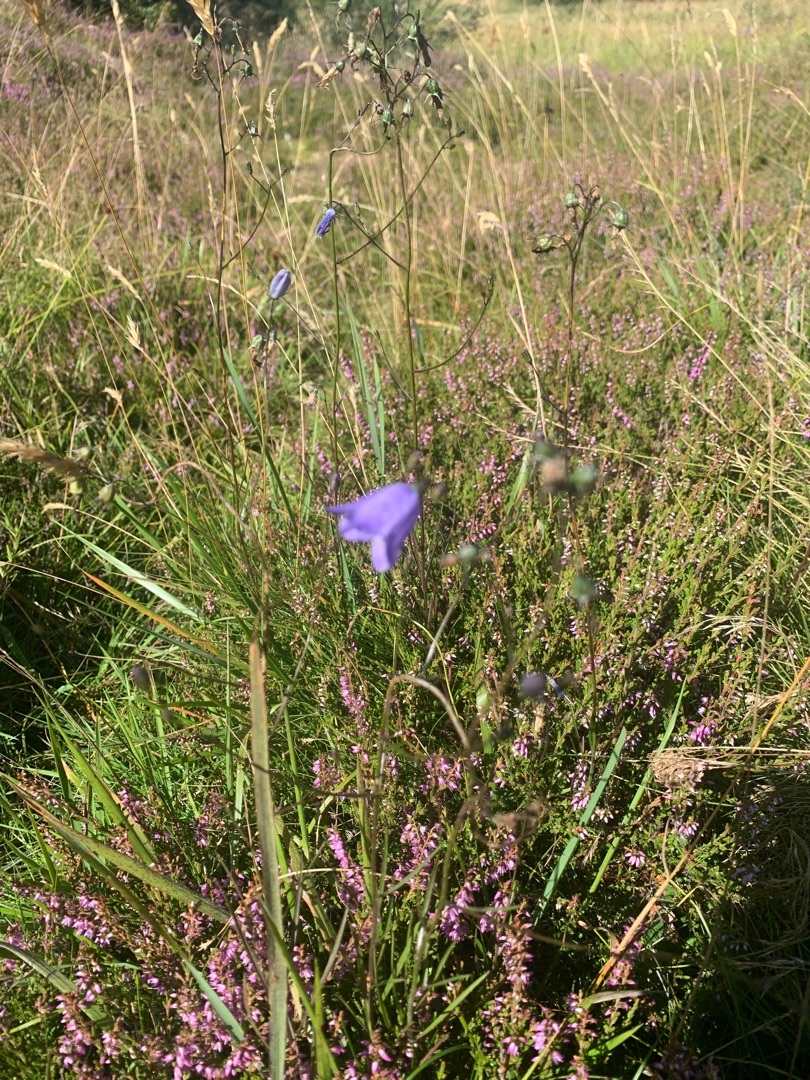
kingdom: Plantae
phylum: Tracheophyta
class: Magnoliopsida
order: Asterales
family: Campanulaceae
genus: Campanula
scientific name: Campanula rotundifolia
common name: Liden klokke
